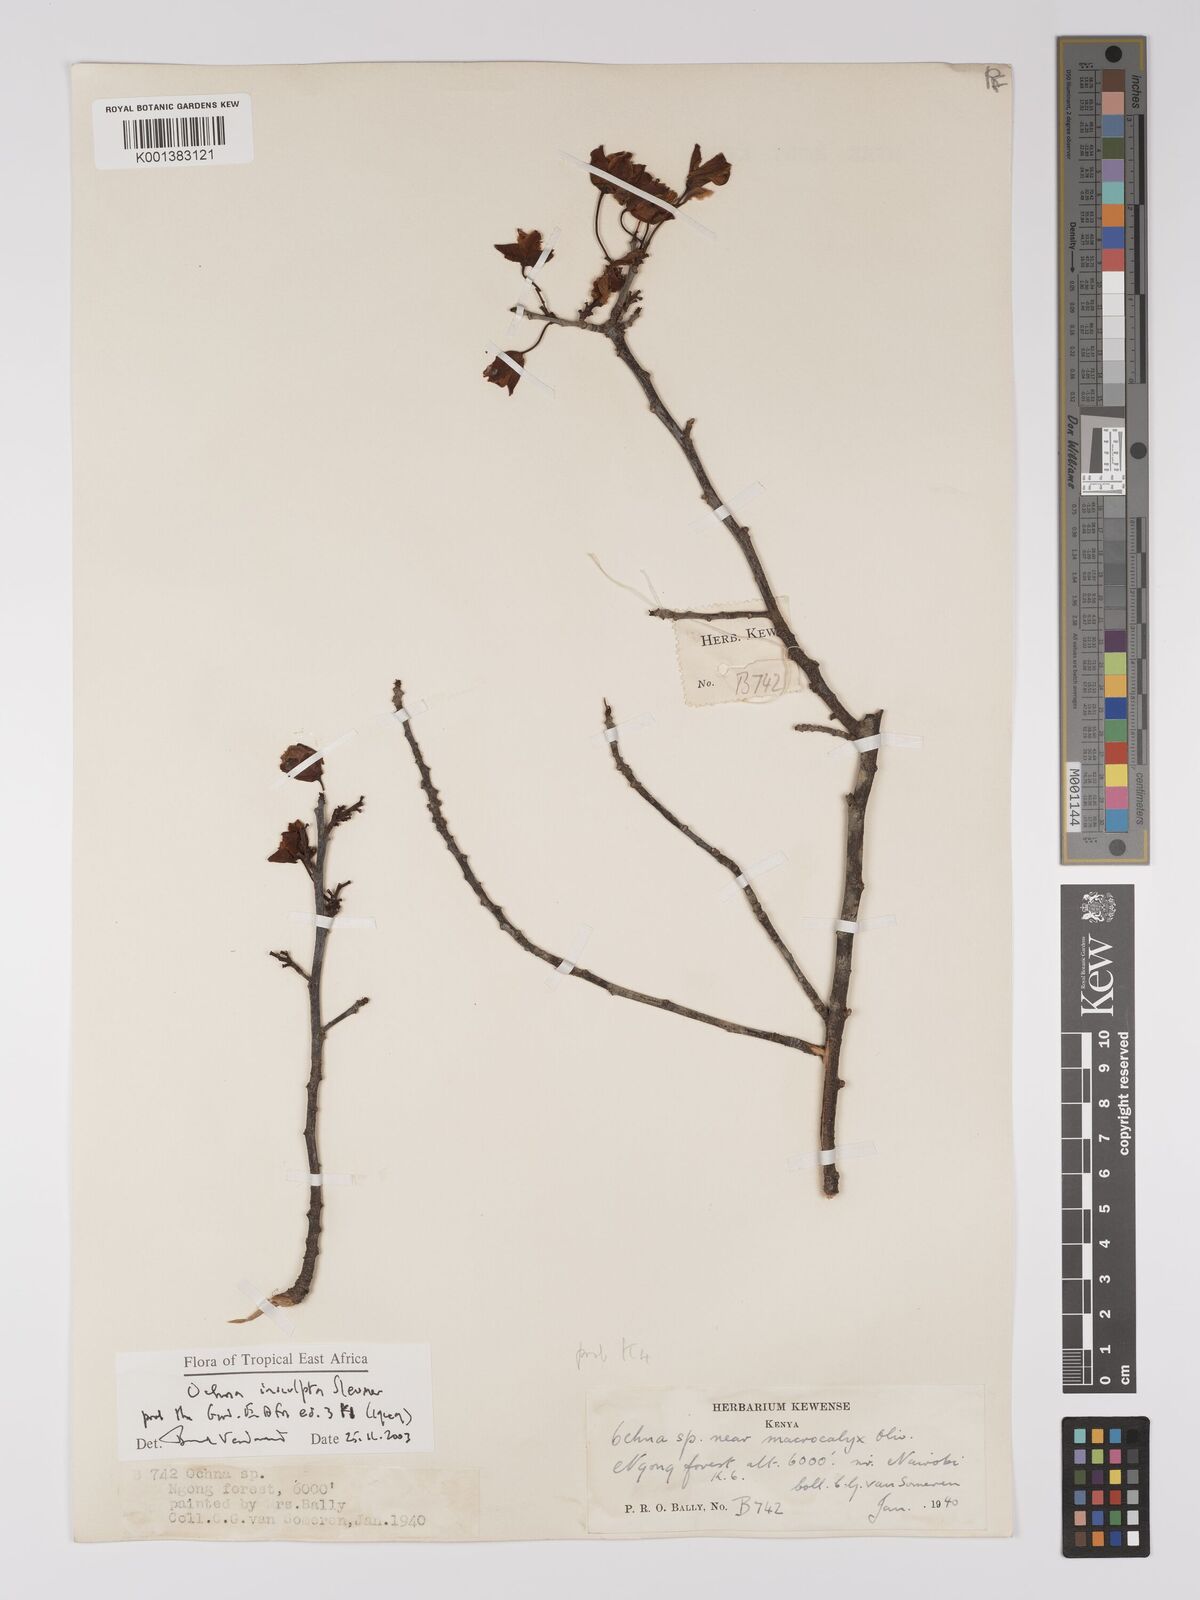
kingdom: Plantae
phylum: Tracheophyta
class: Magnoliopsida
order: Malpighiales
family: Ochnaceae
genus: Ochna
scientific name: Ochna insculpta
